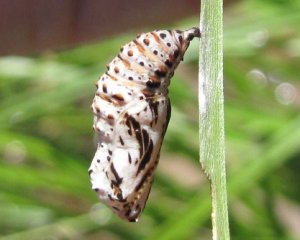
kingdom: Animalia
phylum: Arthropoda
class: Insecta
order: Lepidoptera
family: Nymphalidae
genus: Euphydryas
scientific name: Euphydryas phaeton
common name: Baltimore Checkerspot
